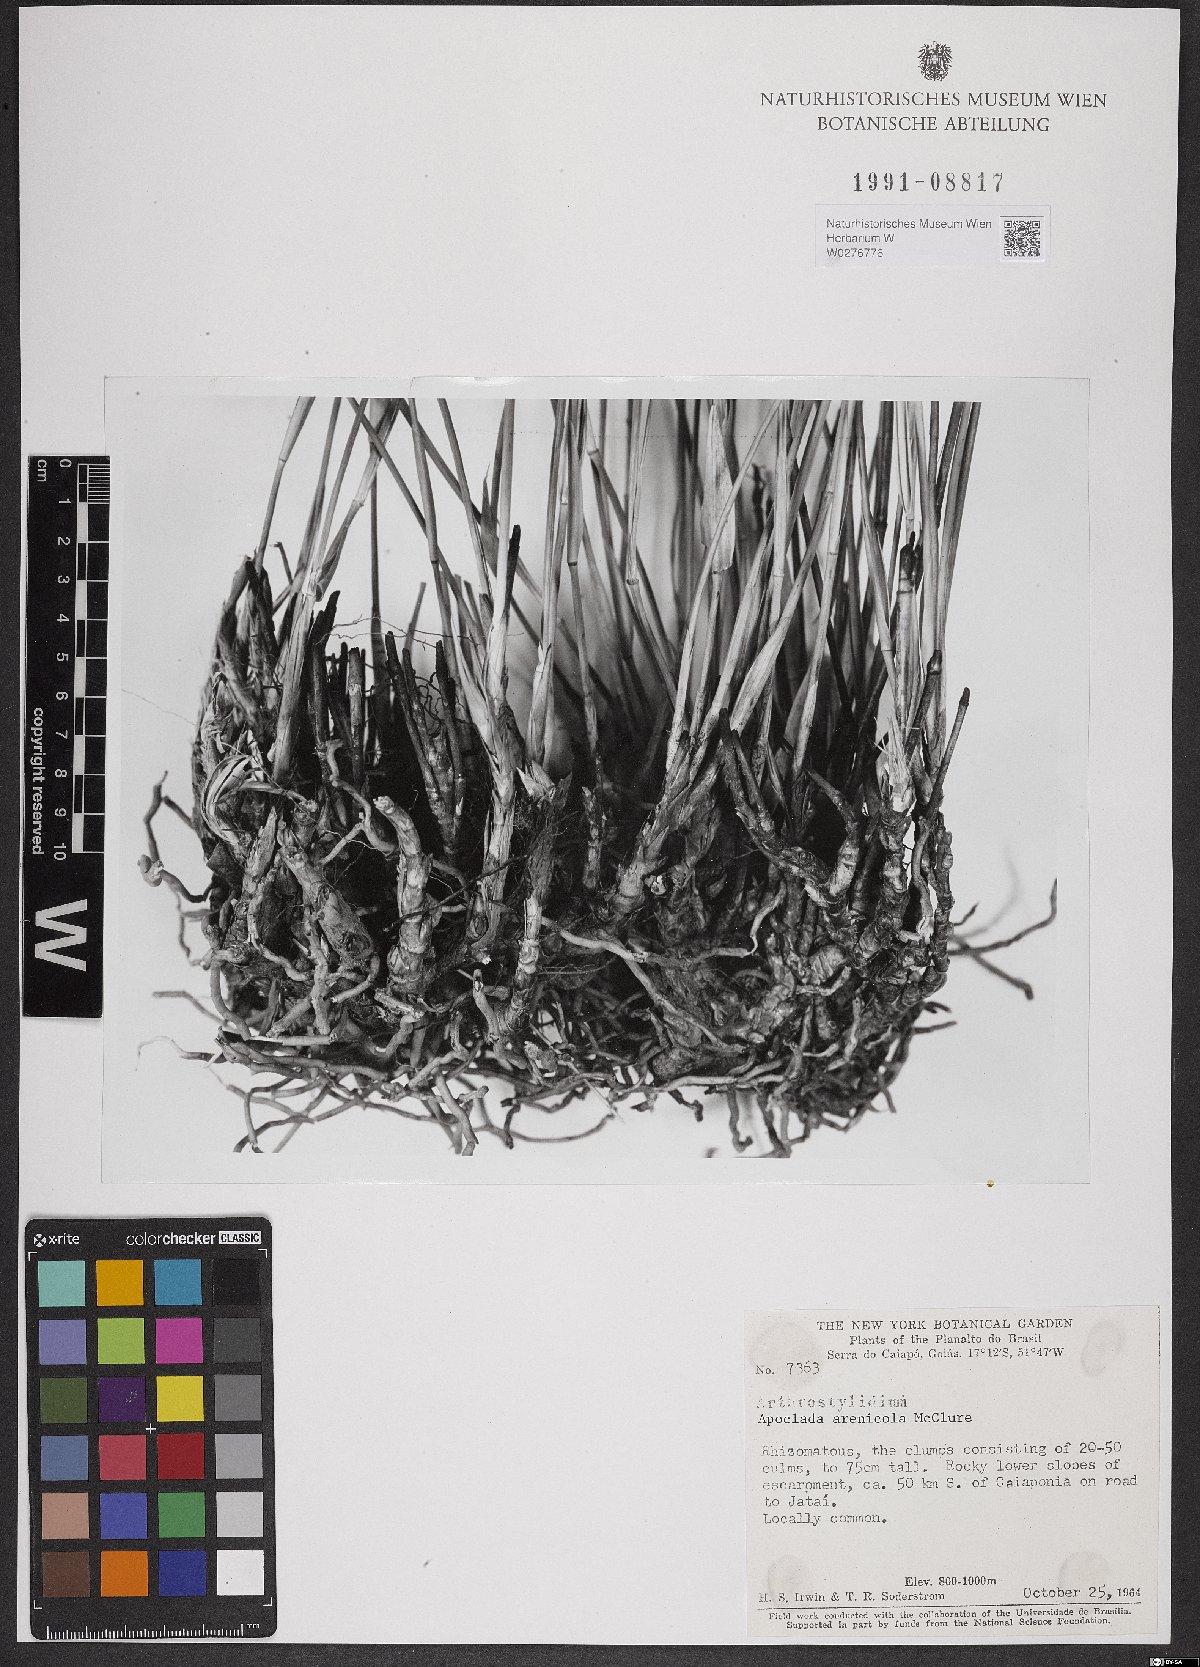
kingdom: Plantae
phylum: Tracheophyta
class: Liliopsida
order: Poales
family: Poaceae
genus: Filgueirasia
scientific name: Filgueirasia arenicola
